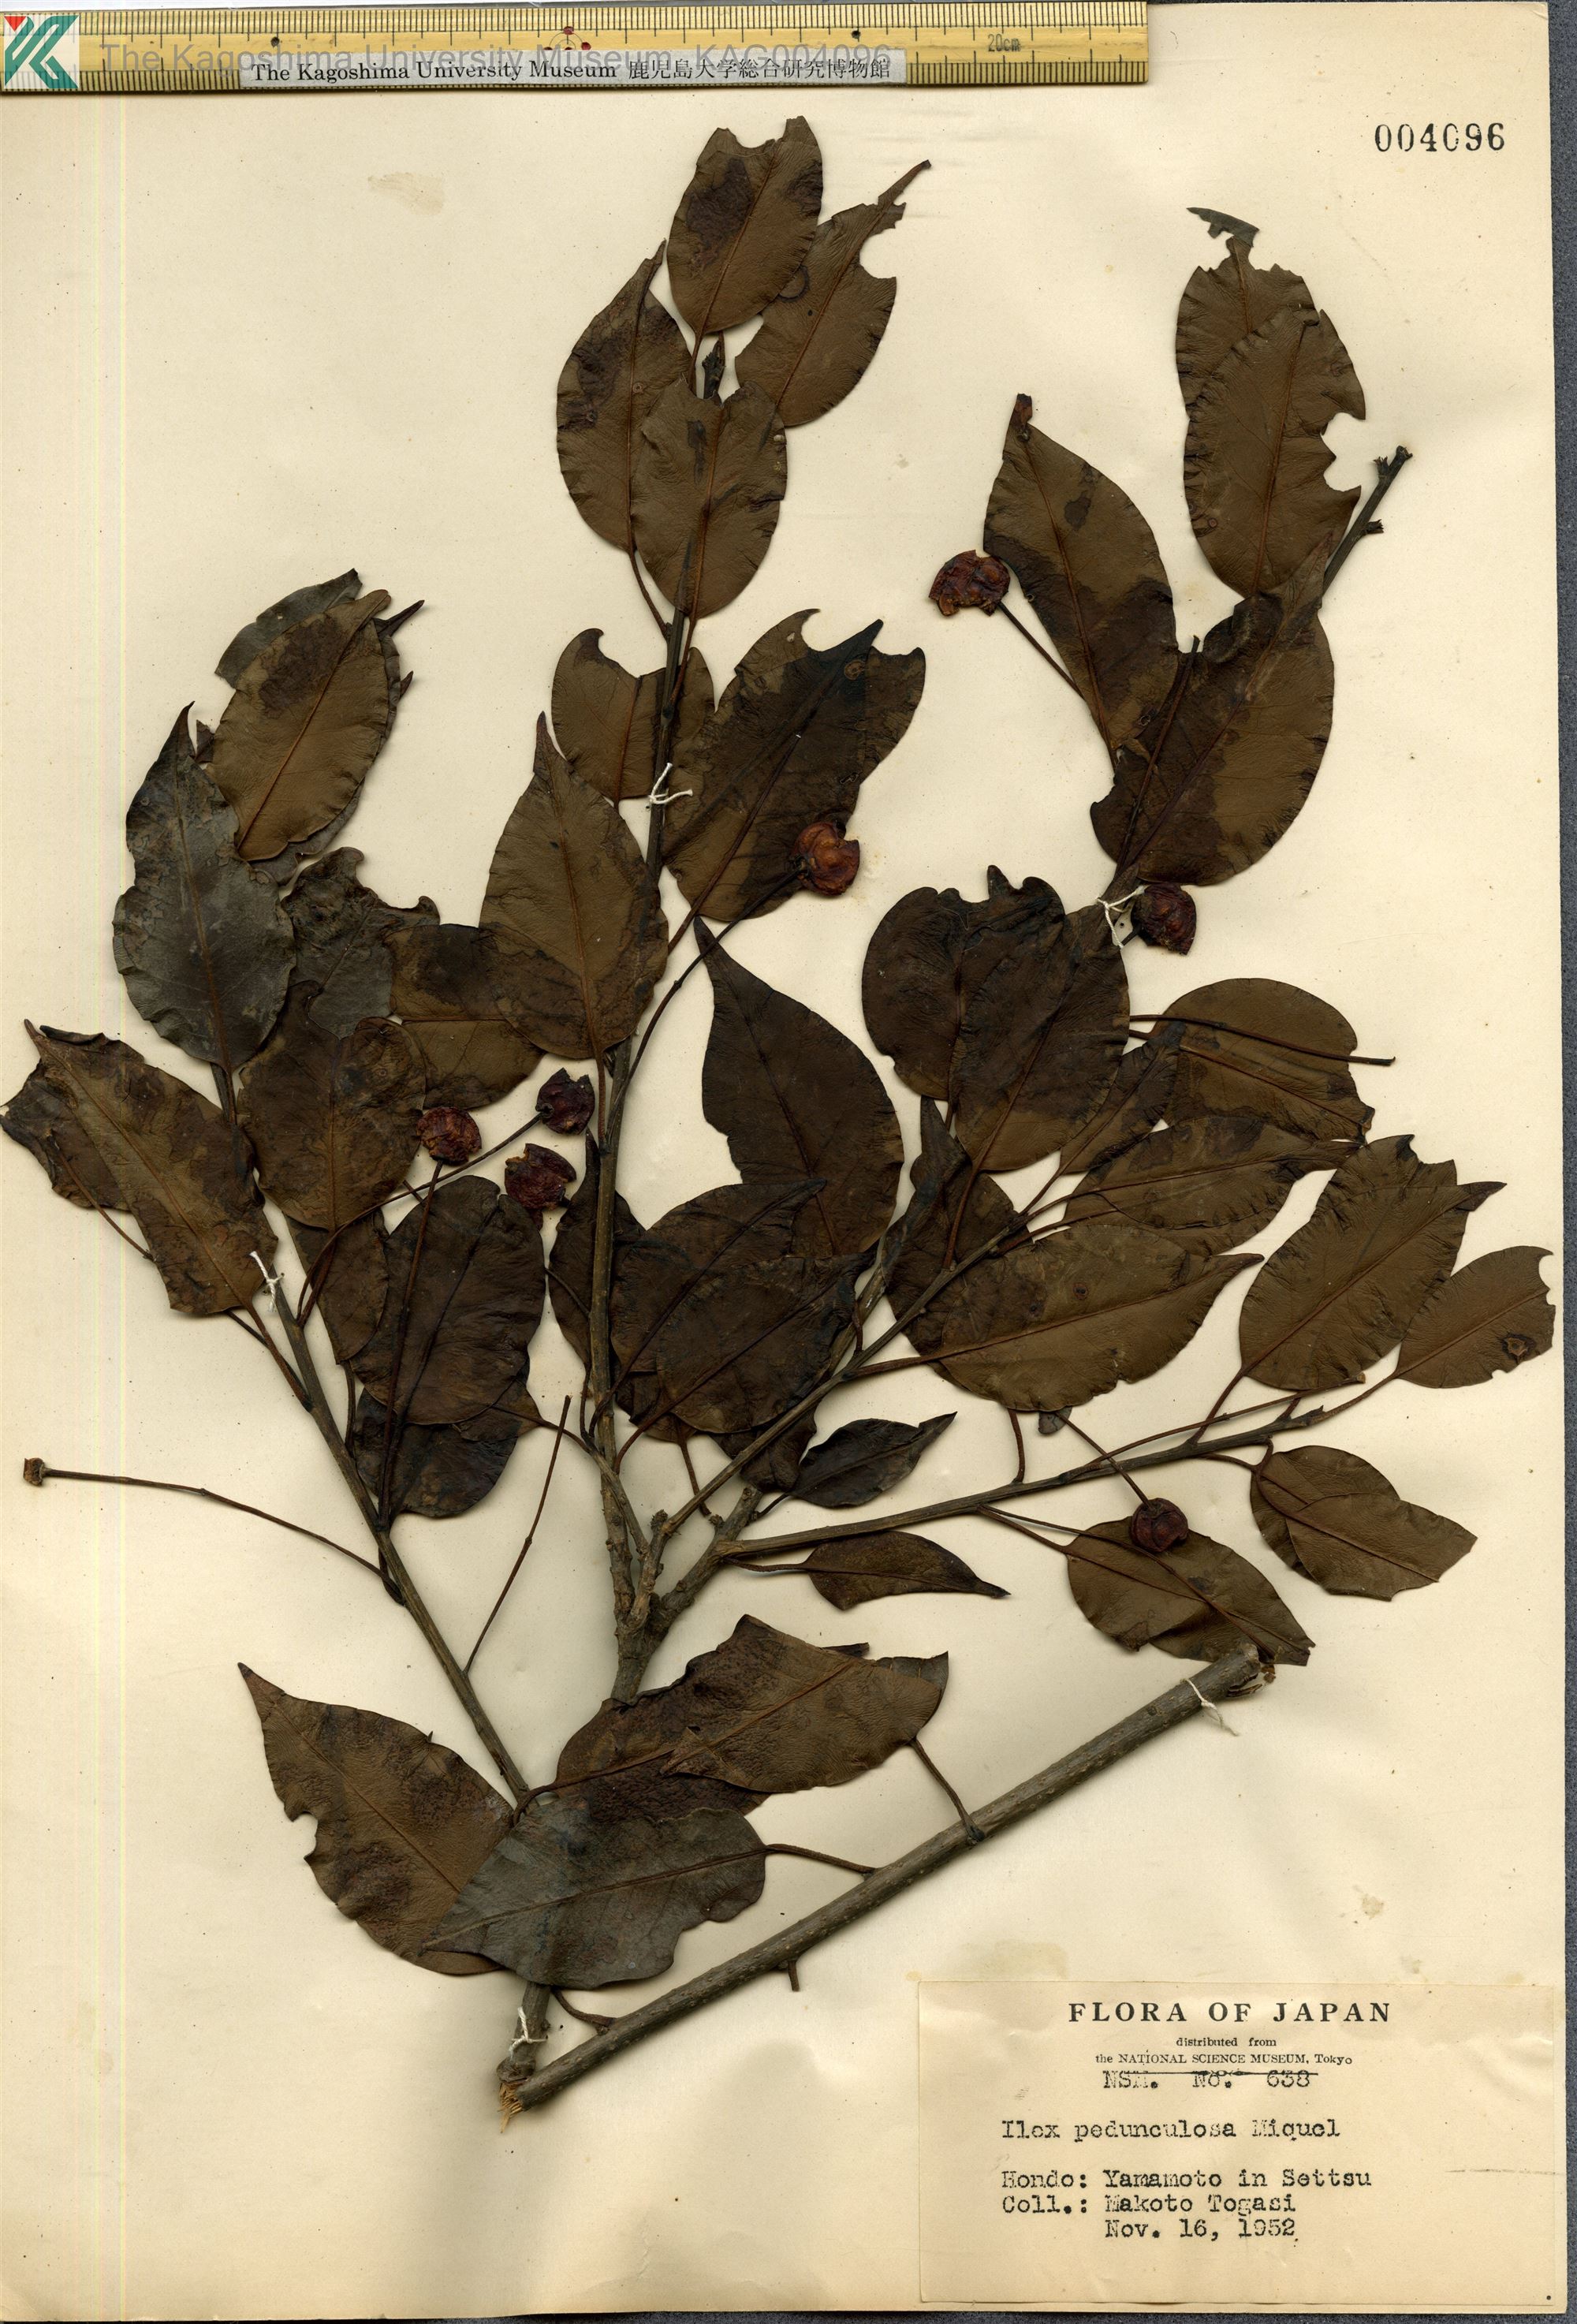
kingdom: Plantae
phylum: Tracheophyta
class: Magnoliopsida
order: Aquifoliales
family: Aquifoliaceae
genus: Ilex
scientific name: Ilex pedunculosa
